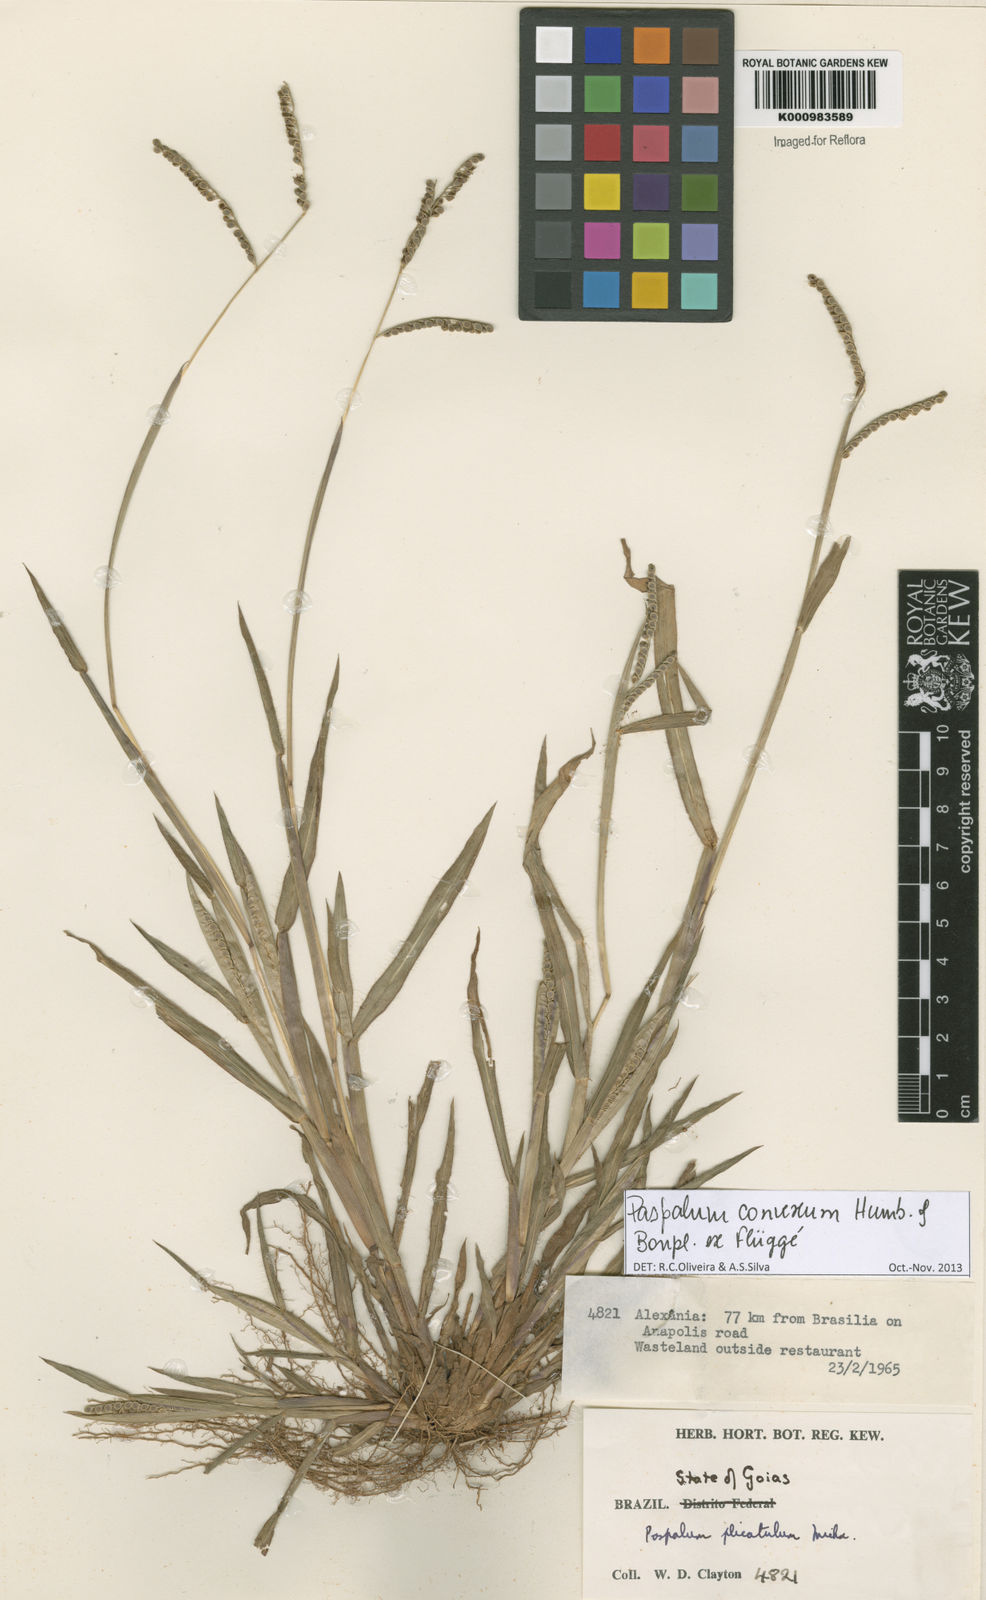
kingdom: Plantae
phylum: Tracheophyta
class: Liliopsida
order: Poales
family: Poaceae
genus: Paspalum
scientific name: Paspalum
